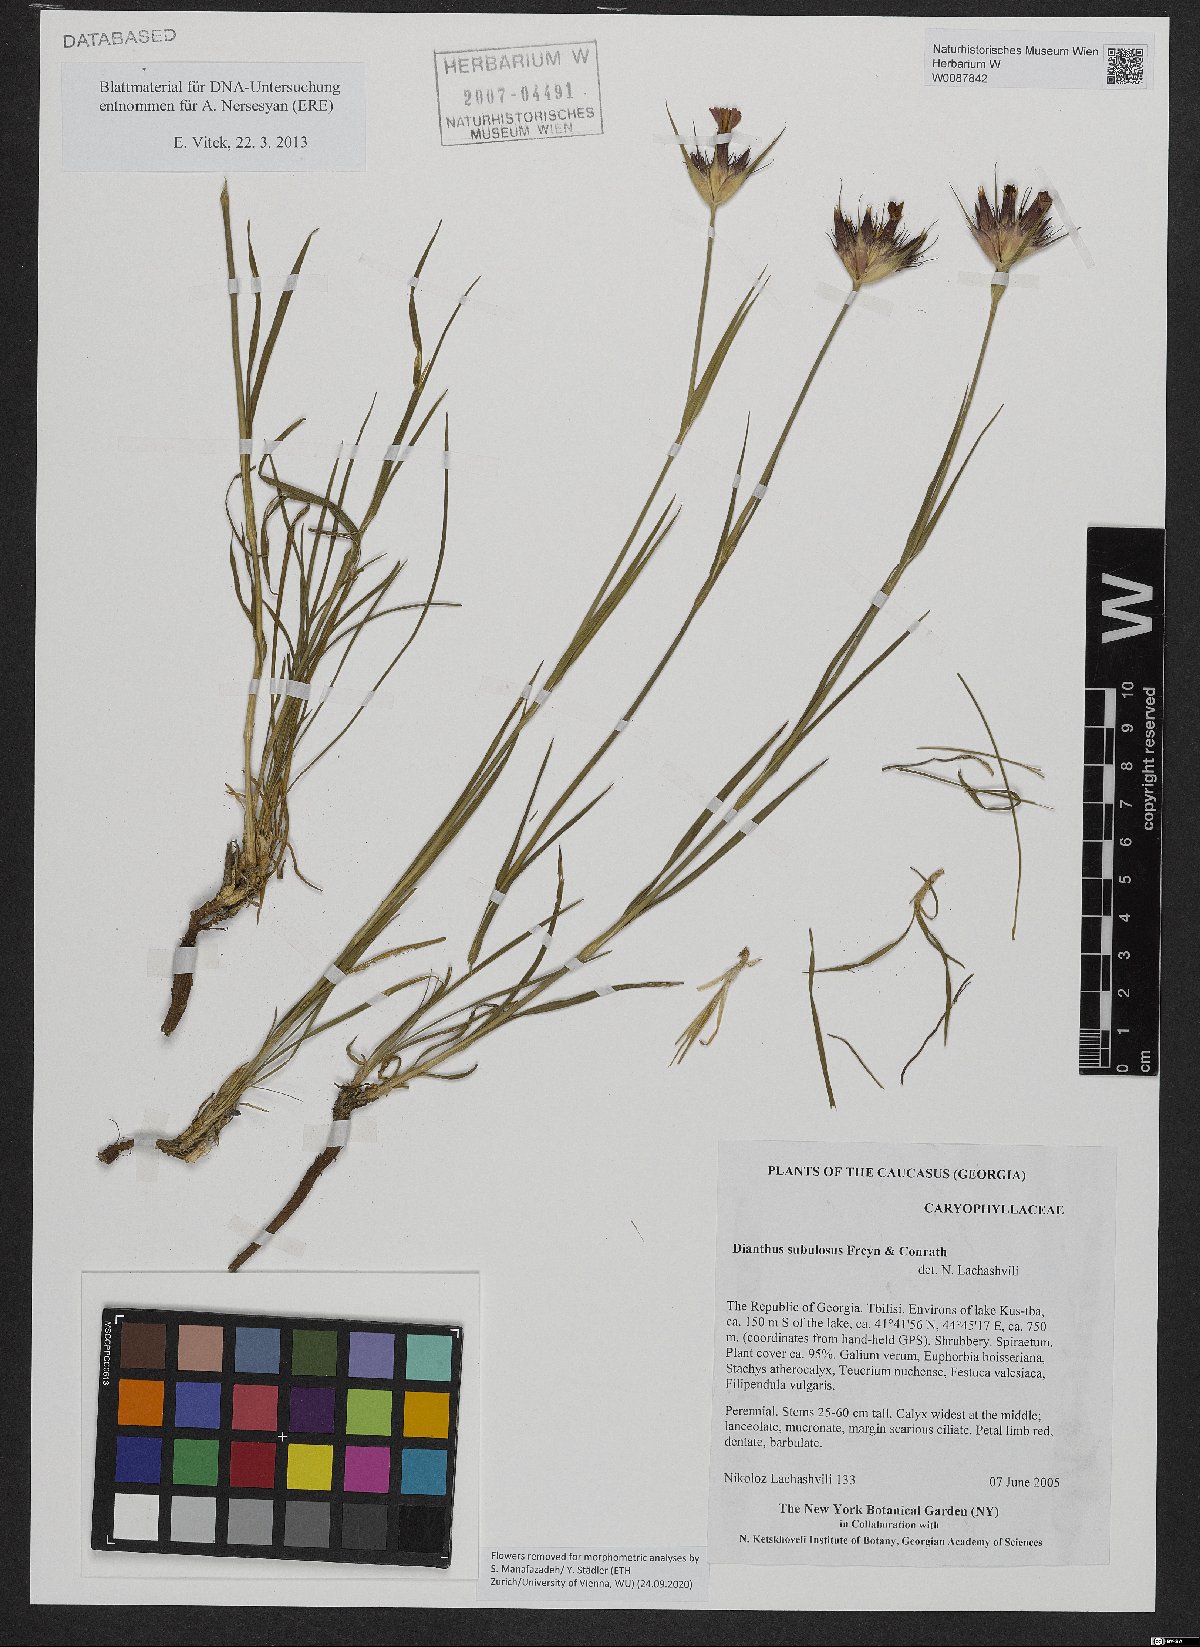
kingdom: Plantae
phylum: Tracheophyta
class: Magnoliopsida
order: Caryophyllales
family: Caryophyllaceae
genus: Dianthus
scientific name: Dianthus subulosus
